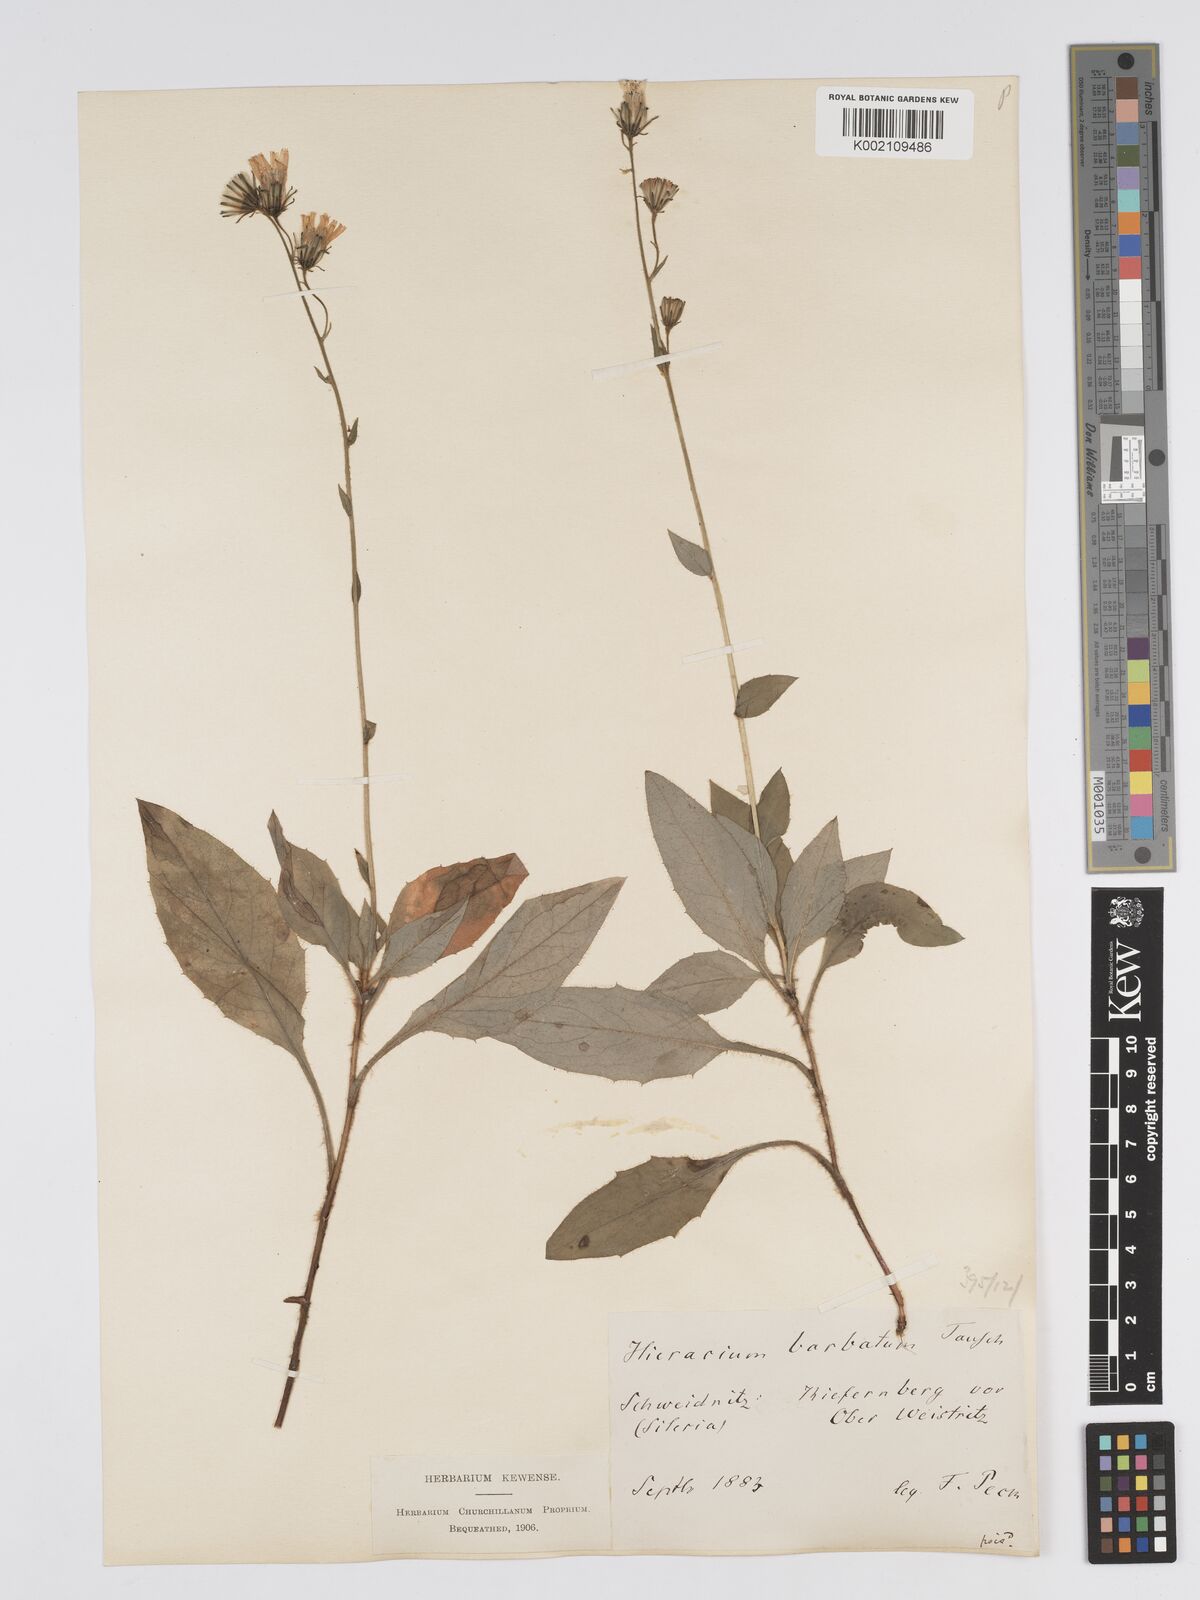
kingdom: Plantae
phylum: Tracheophyta
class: Magnoliopsida
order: Asterales
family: Asteraceae
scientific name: Asteraceae
